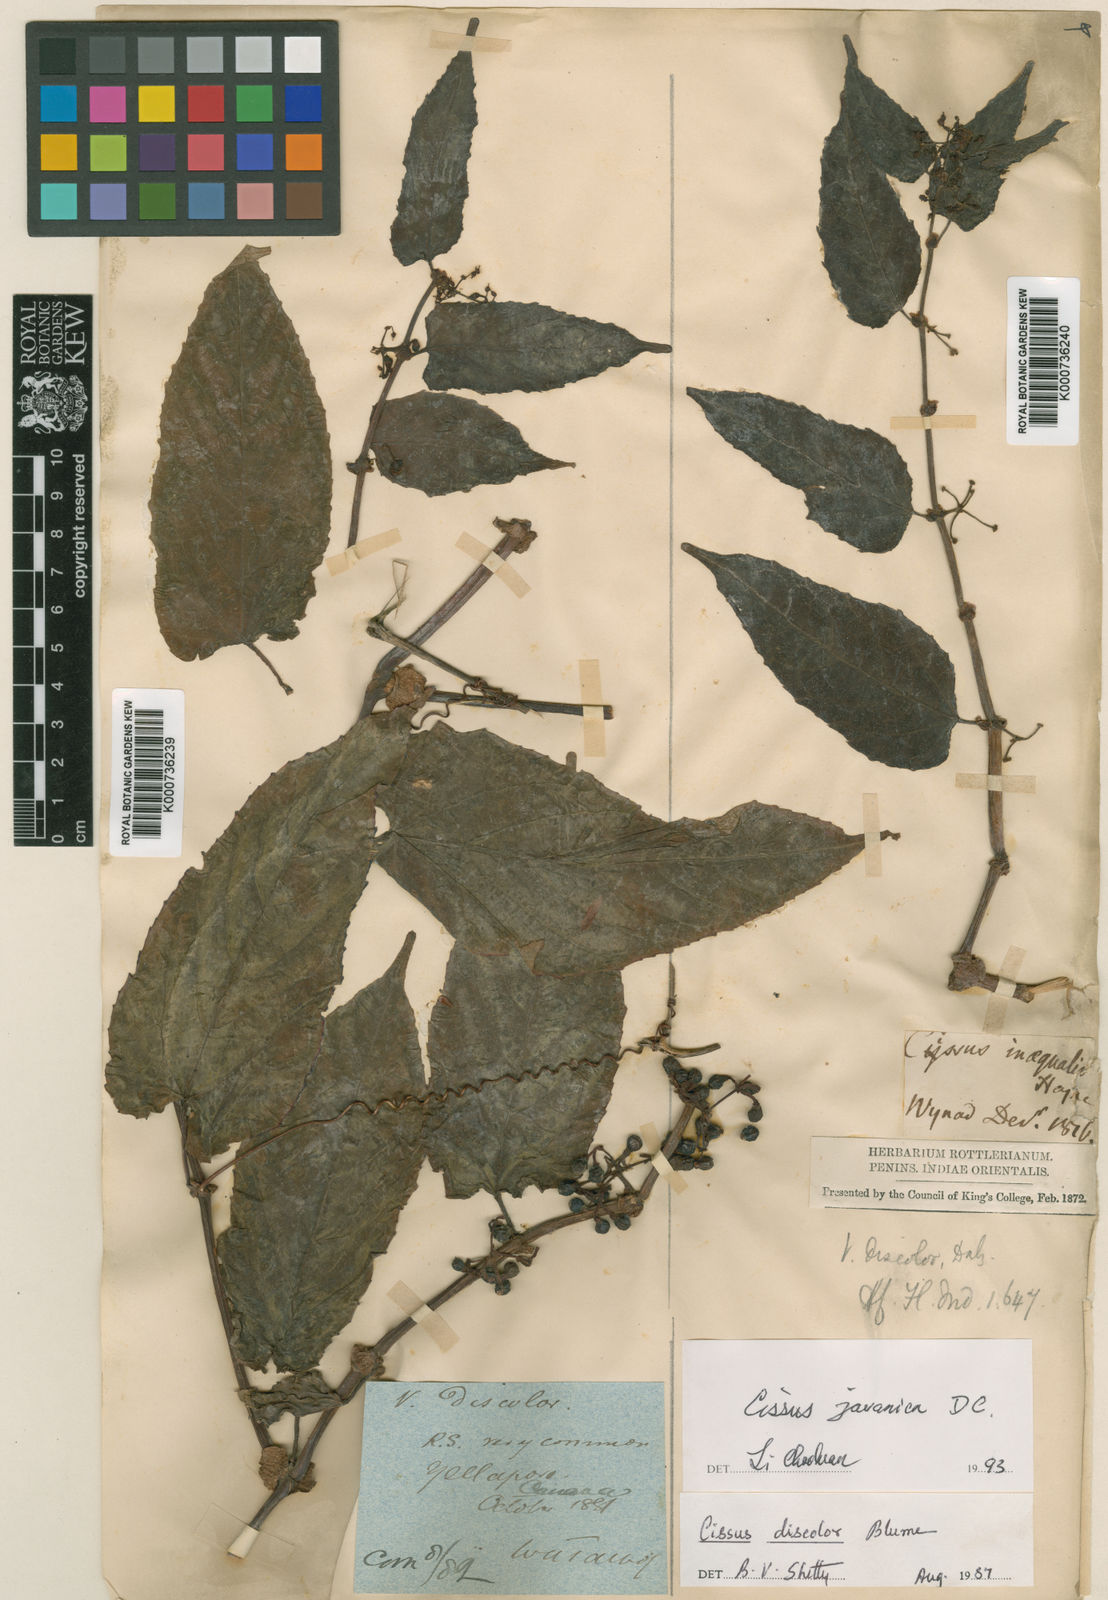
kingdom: Plantae
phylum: Tracheophyta
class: Magnoliopsida
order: Vitales
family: Vitaceae
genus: Cissus
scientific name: Cissus discolor
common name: Climbing-begonia
